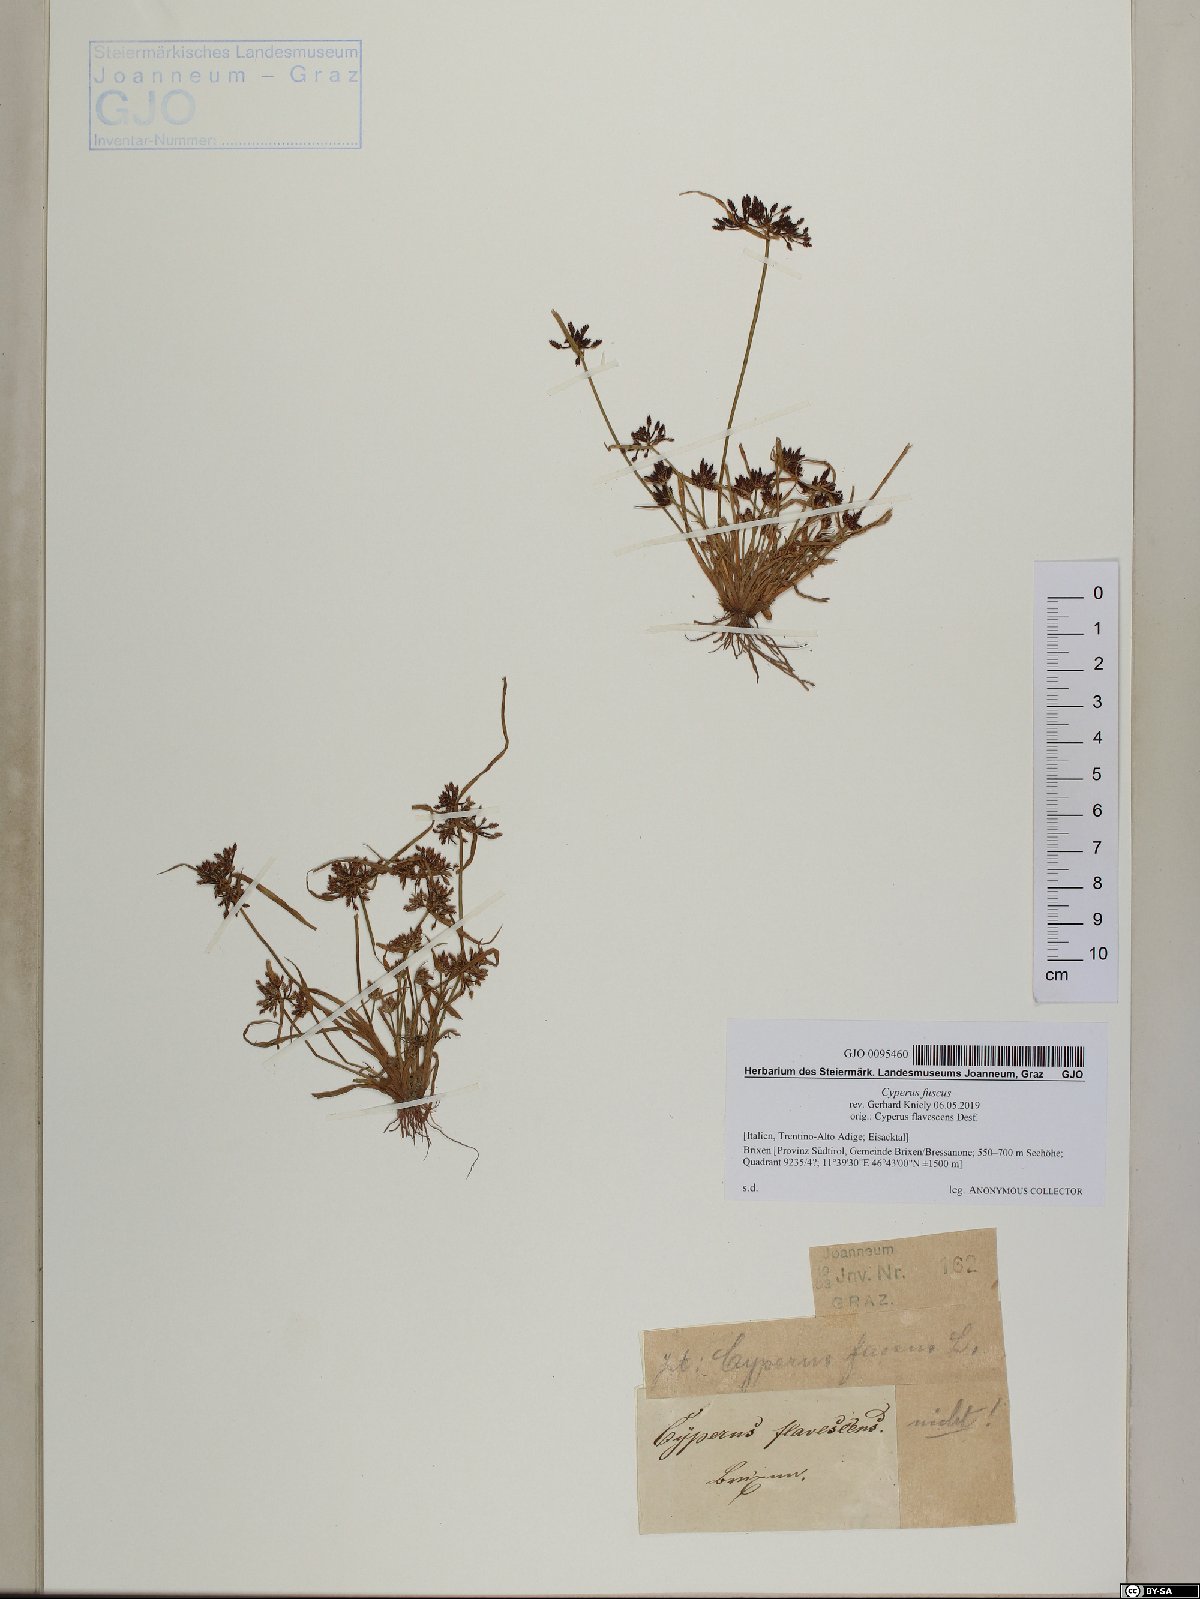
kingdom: Plantae
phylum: Tracheophyta
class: Liliopsida
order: Poales
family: Cyperaceae
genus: Cyperus
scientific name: Cyperus fuscus
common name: Brown galingale
